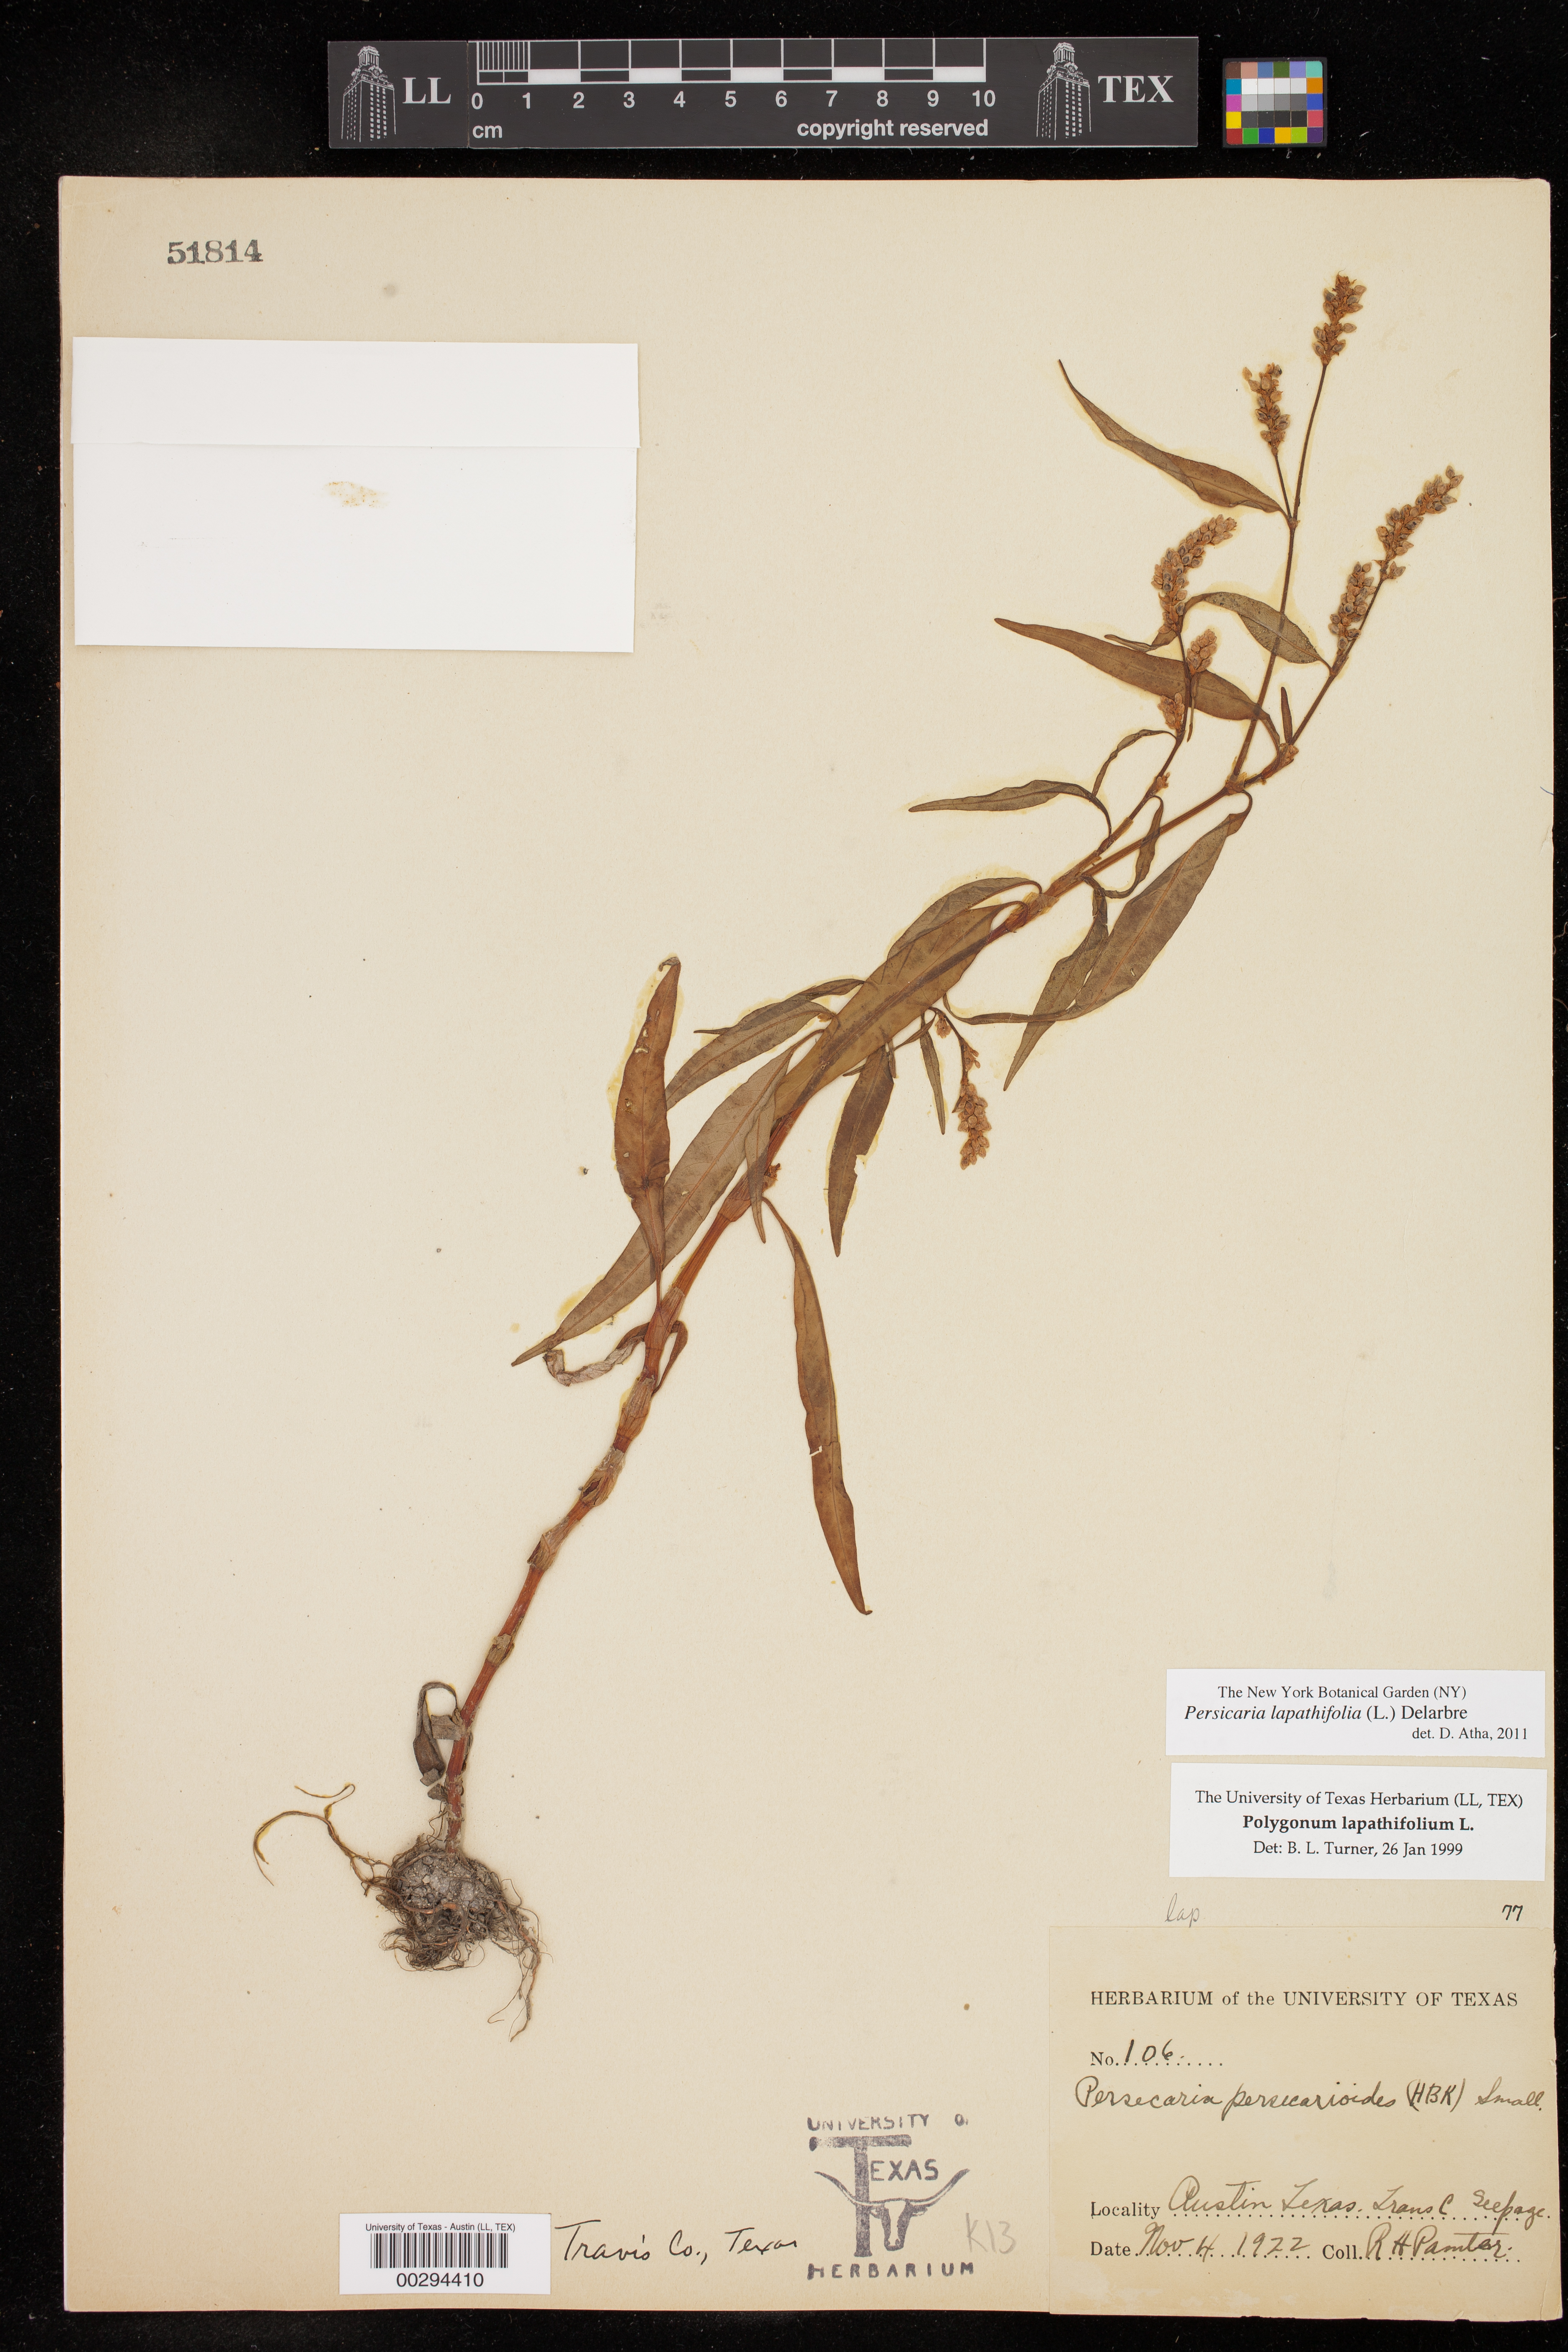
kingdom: Plantae
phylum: Tracheophyta
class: Magnoliopsida
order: Caryophyllales
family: Polygonaceae
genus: Persicaria
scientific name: Persicaria lapathifolia
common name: Curlytop knotweed
